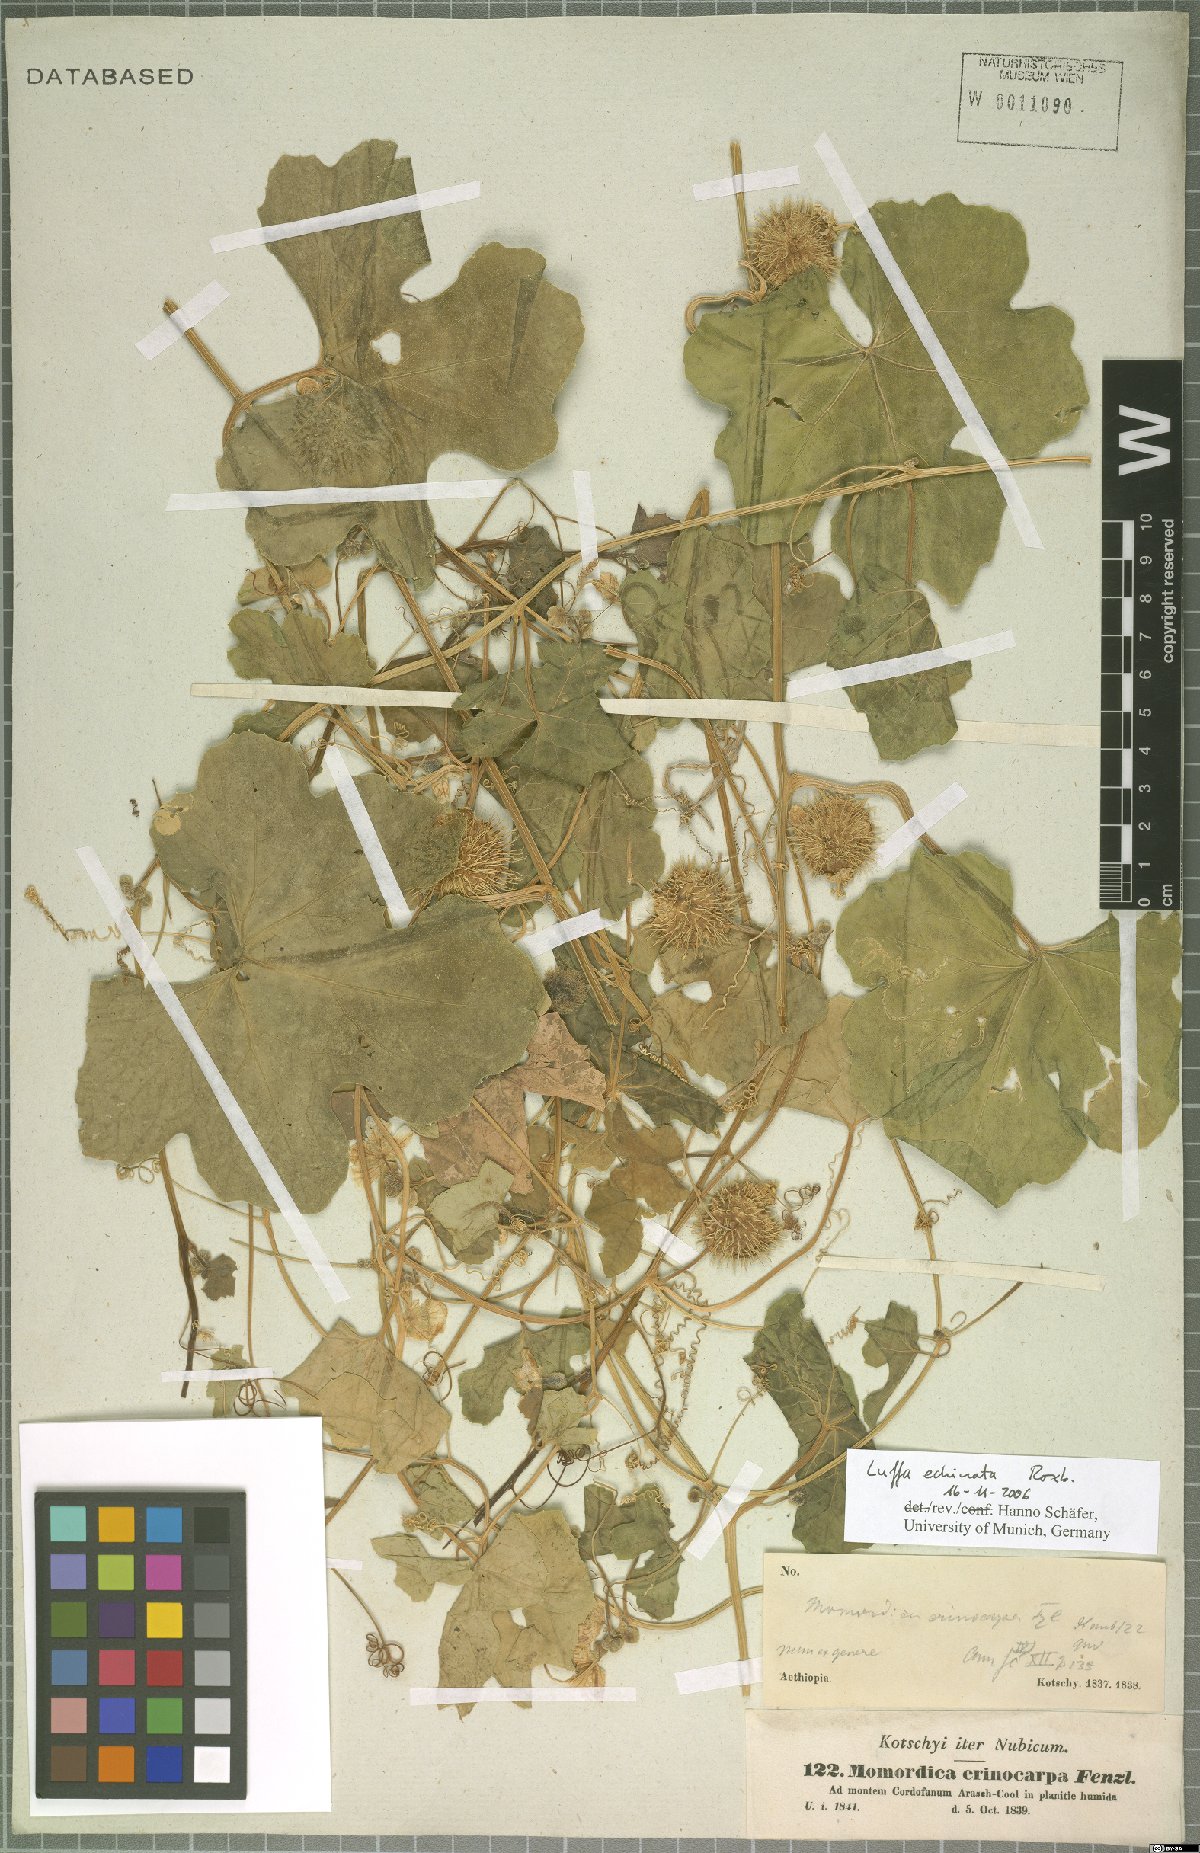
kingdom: Plantae
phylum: Tracheophyta
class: Magnoliopsida
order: Cucurbitales
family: Cucurbitaceae
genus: Luffa
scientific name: Luffa echinata
